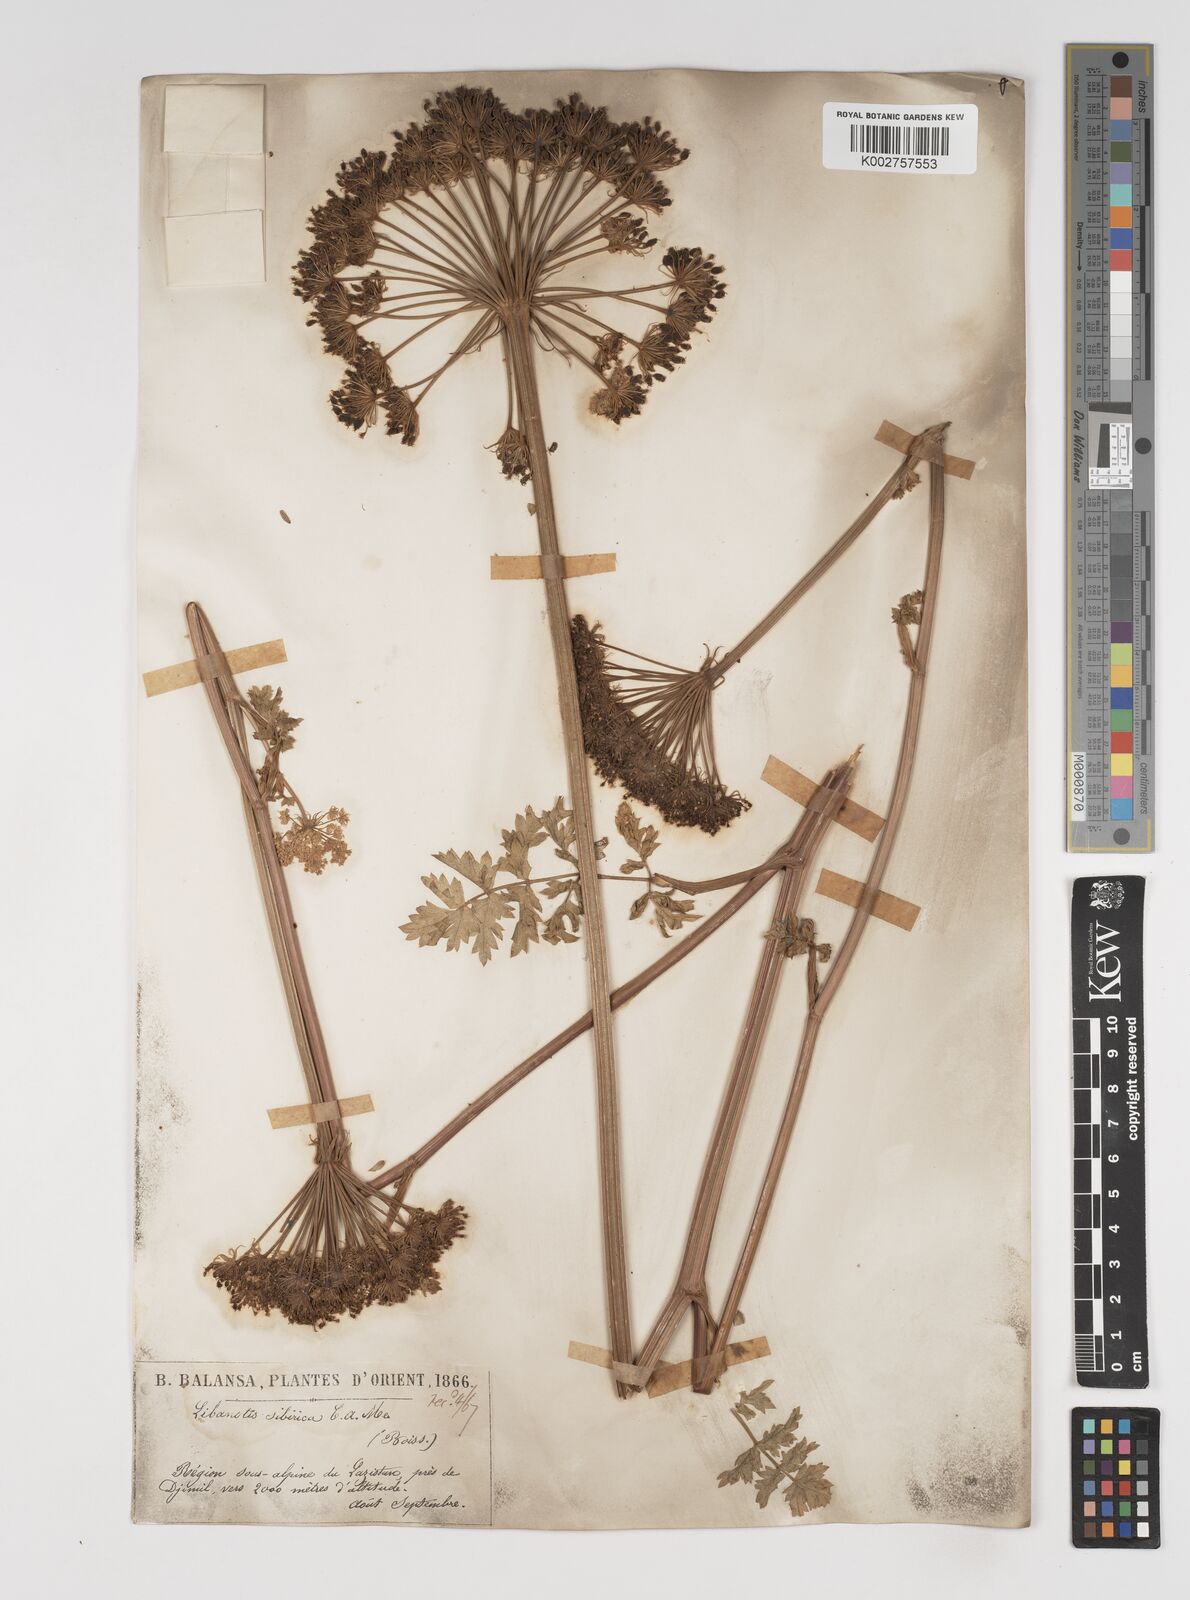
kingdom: Plantae
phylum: Tracheophyta
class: Magnoliopsida
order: Apiales
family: Apiaceae
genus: Seseli
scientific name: Seseli libanotis
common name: Mooncarrot
